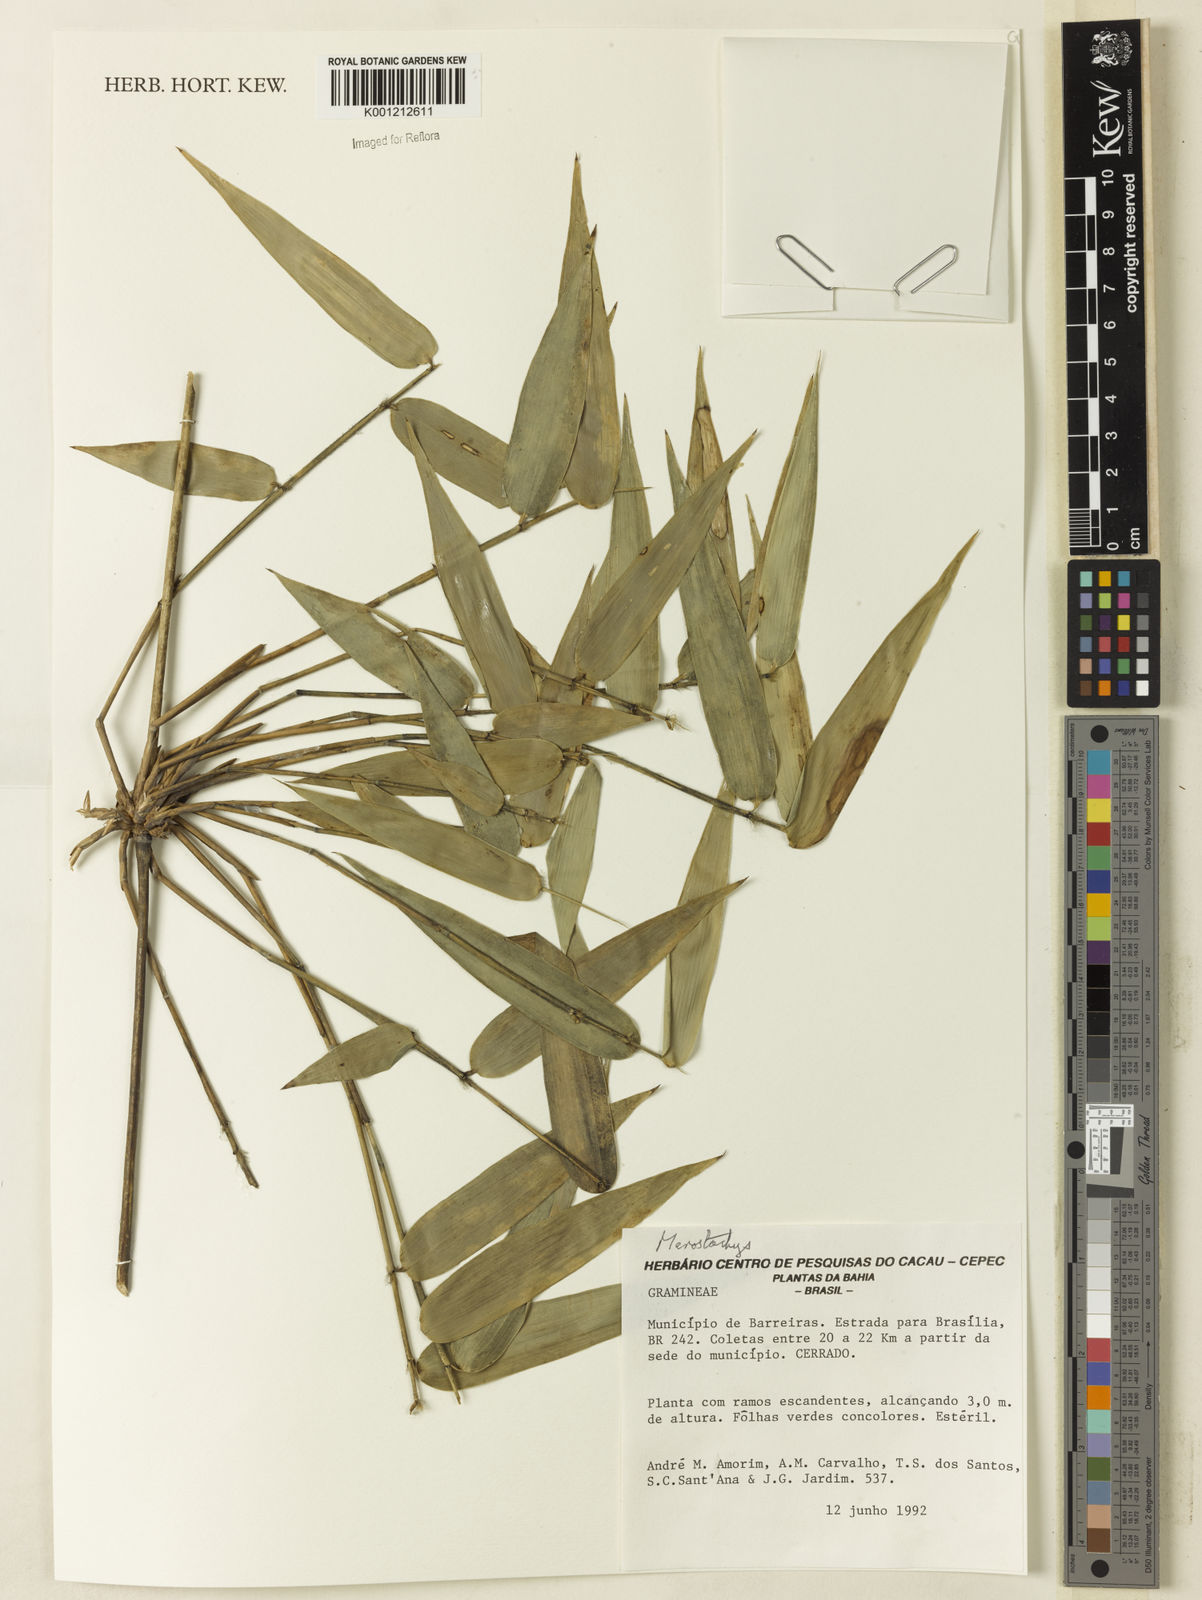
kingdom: Plantae
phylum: Tracheophyta
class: Liliopsida
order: Poales
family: Poaceae
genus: Merostachys
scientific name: Merostachys
